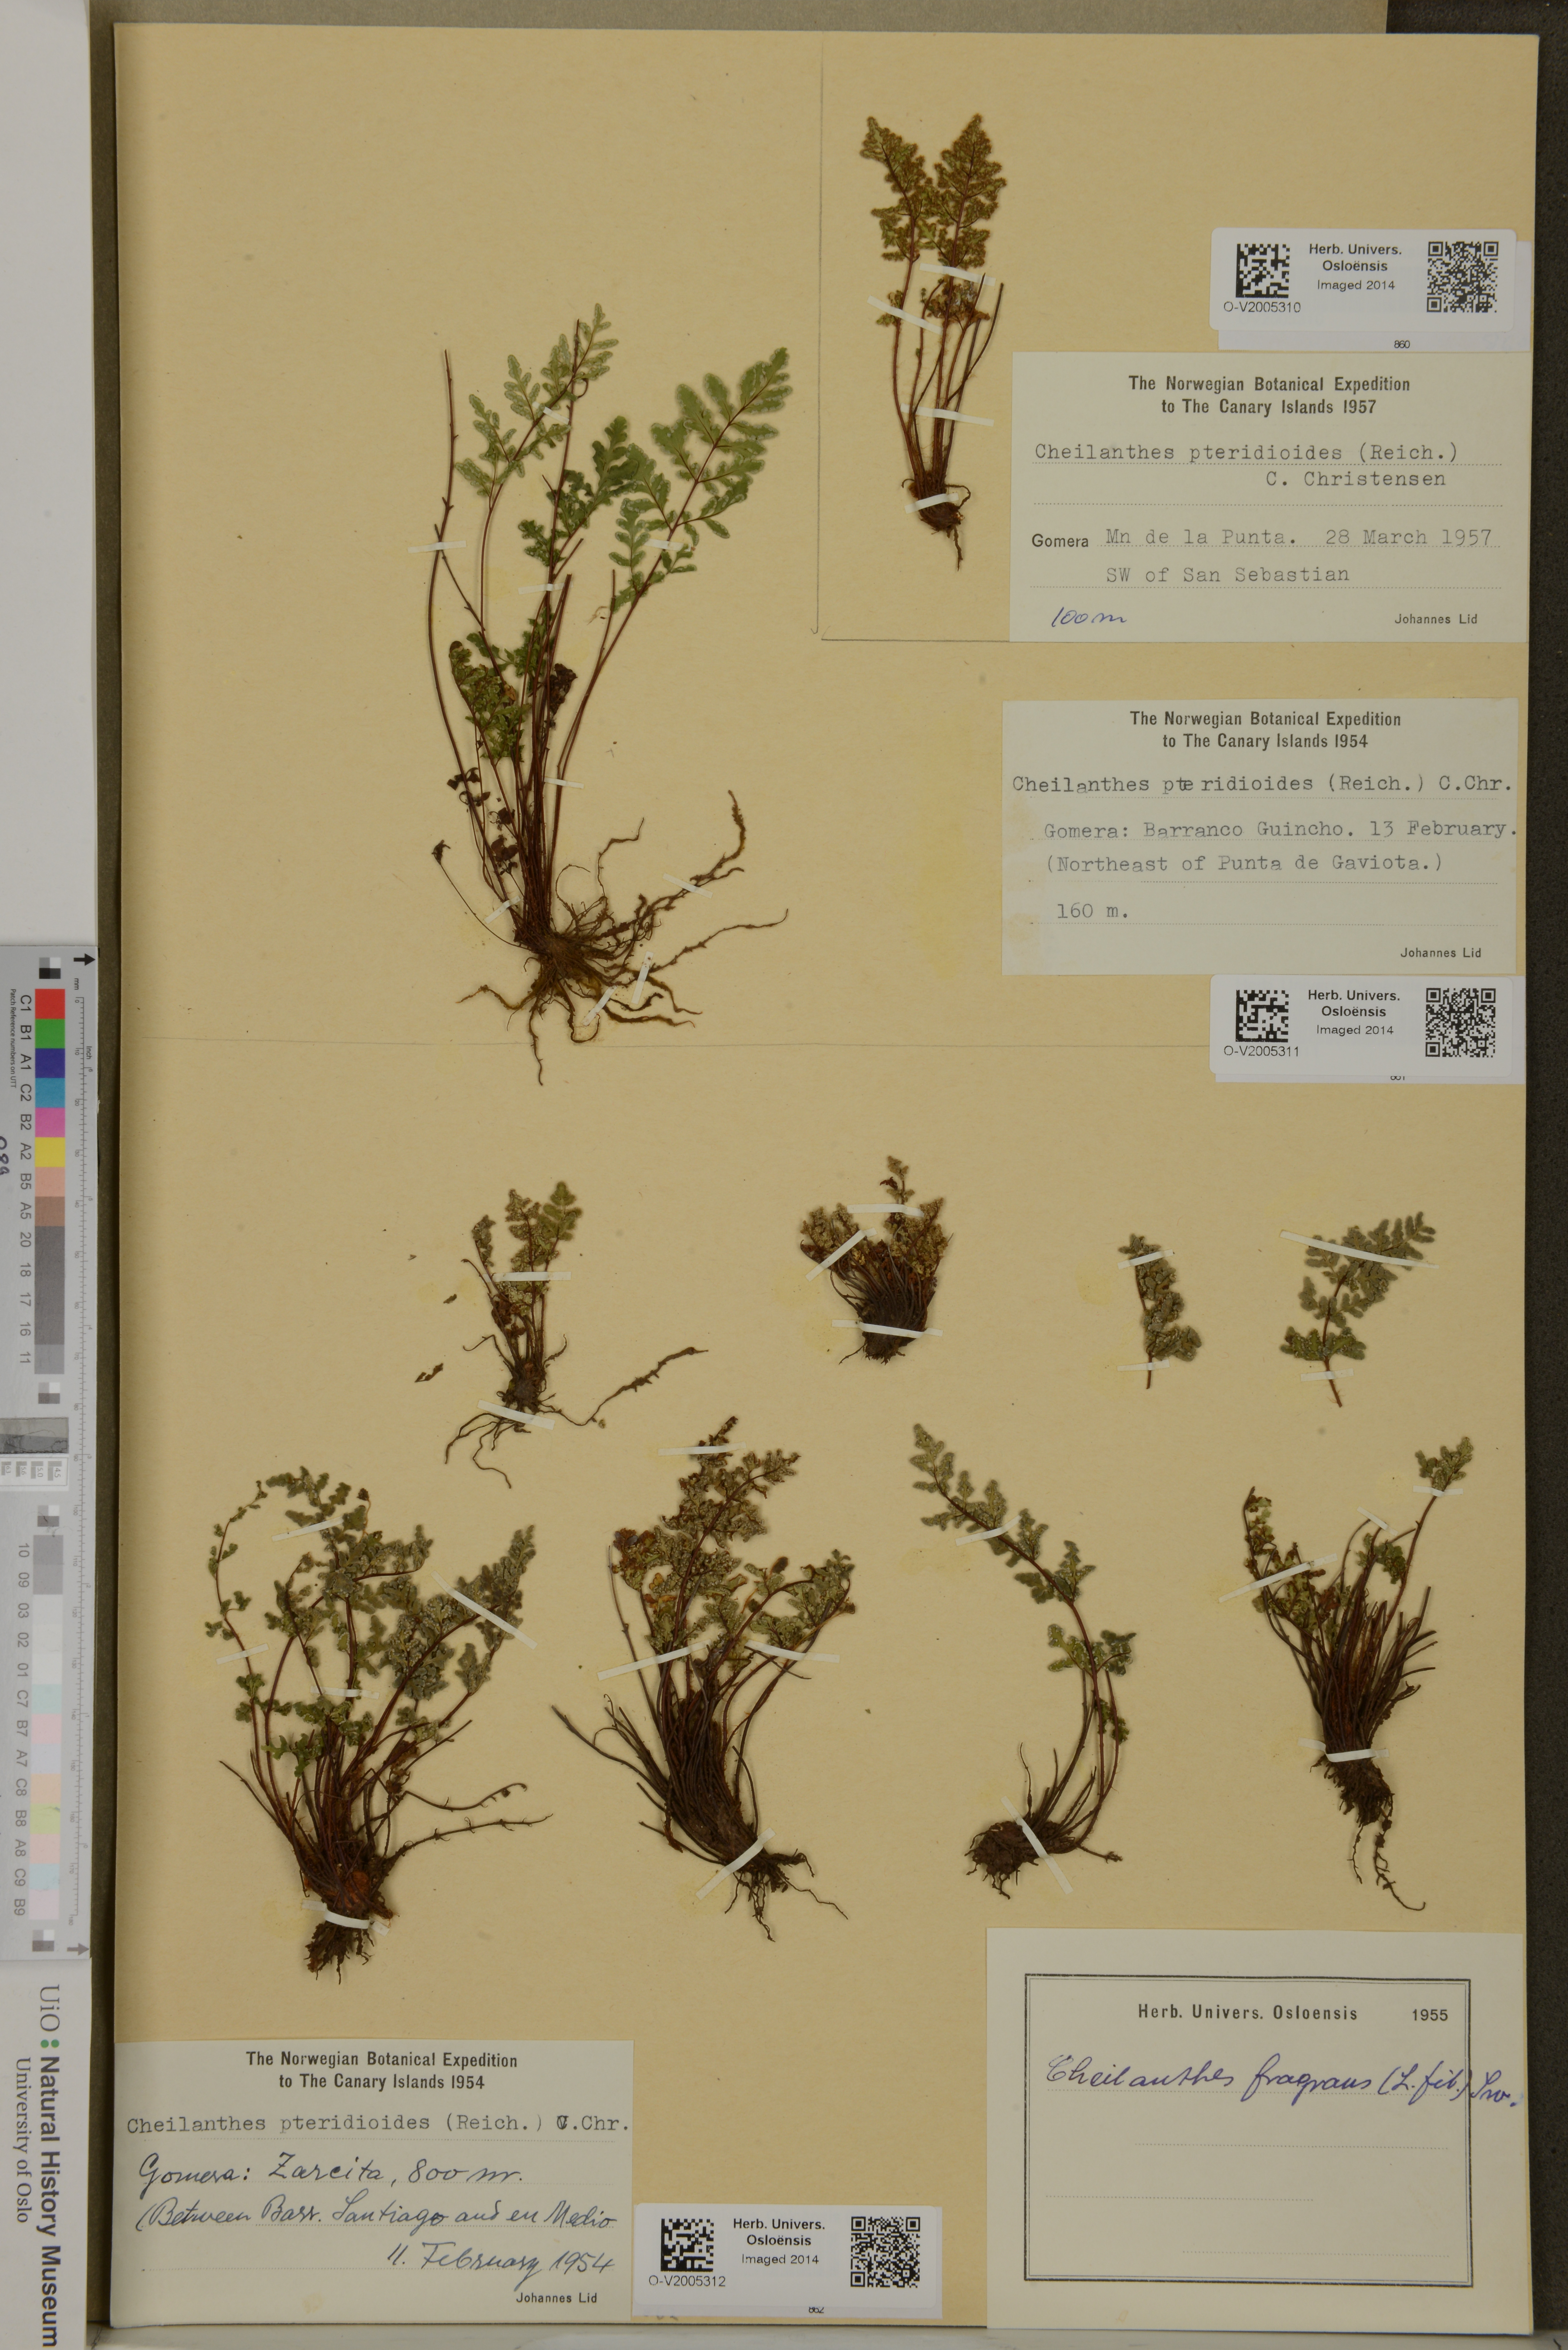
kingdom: Plantae
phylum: Tracheophyta
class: Polypodiopsida
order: Polypodiales
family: Pteridaceae
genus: Oeosporangium
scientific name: Oeosporangium pteridioides
